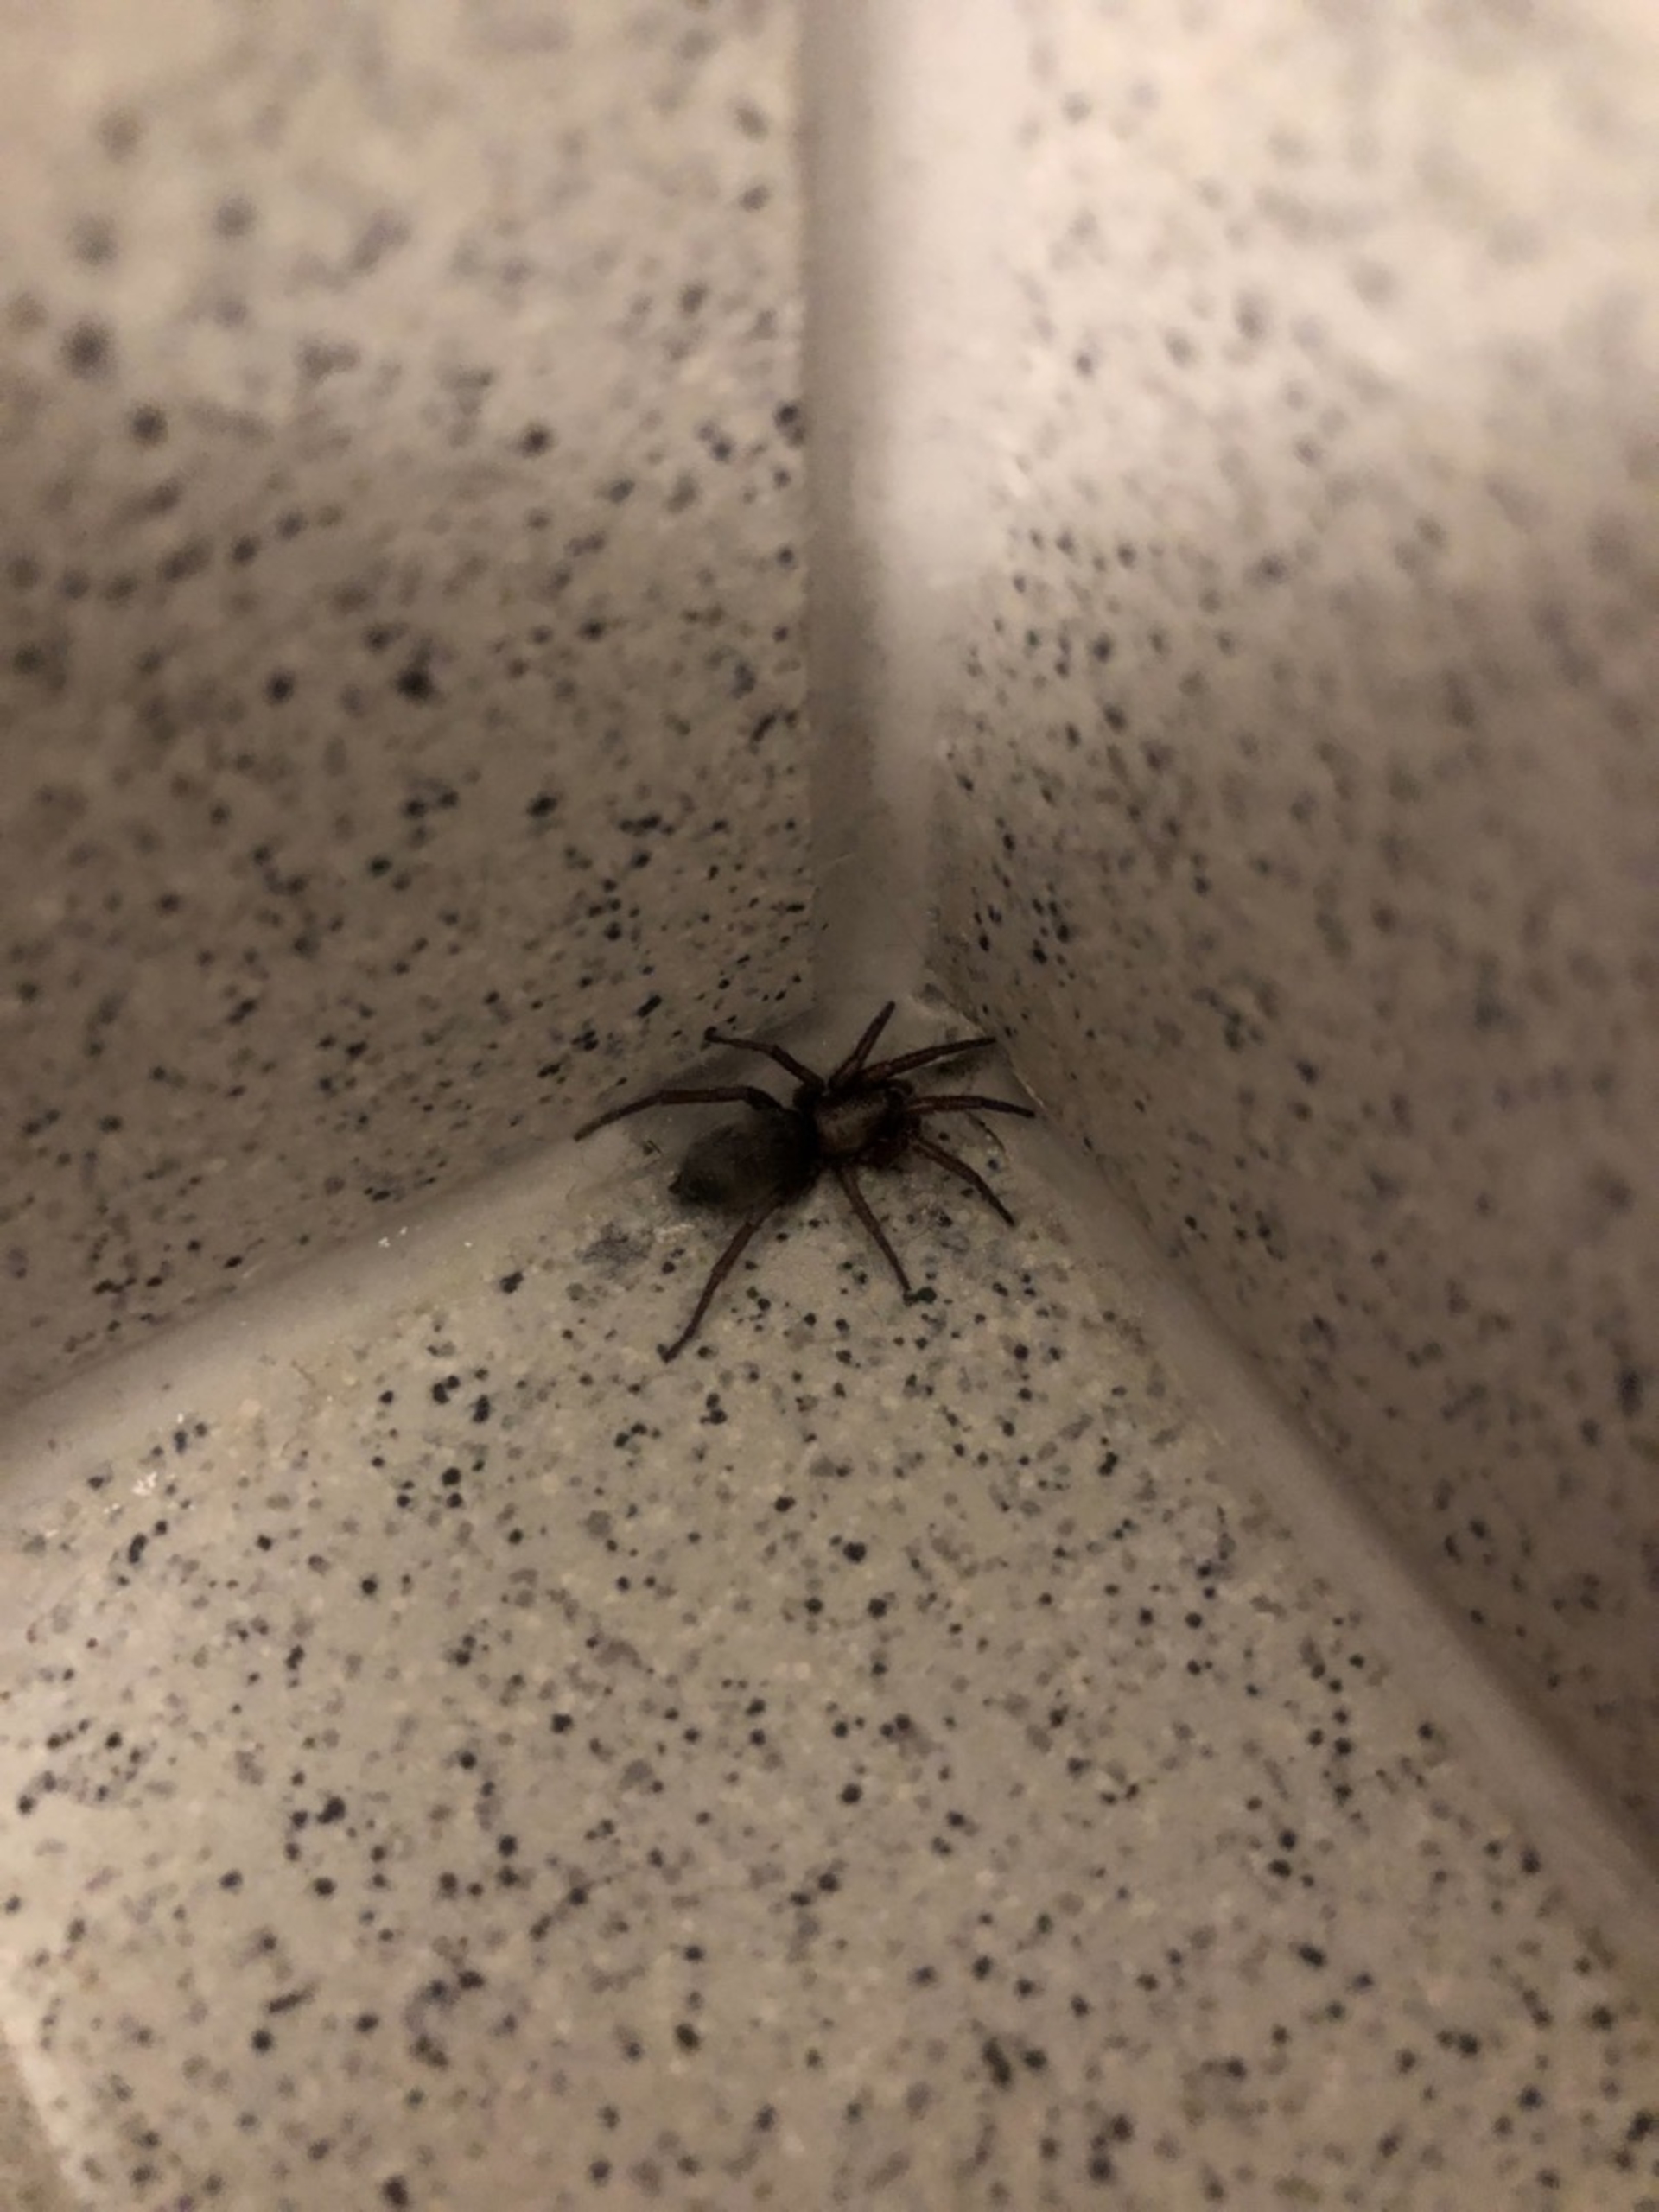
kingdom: Animalia
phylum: Arthropoda
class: Arachnida
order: Araneae
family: Gnaphosidae
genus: Scotophaeus
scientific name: Scotophaeus
